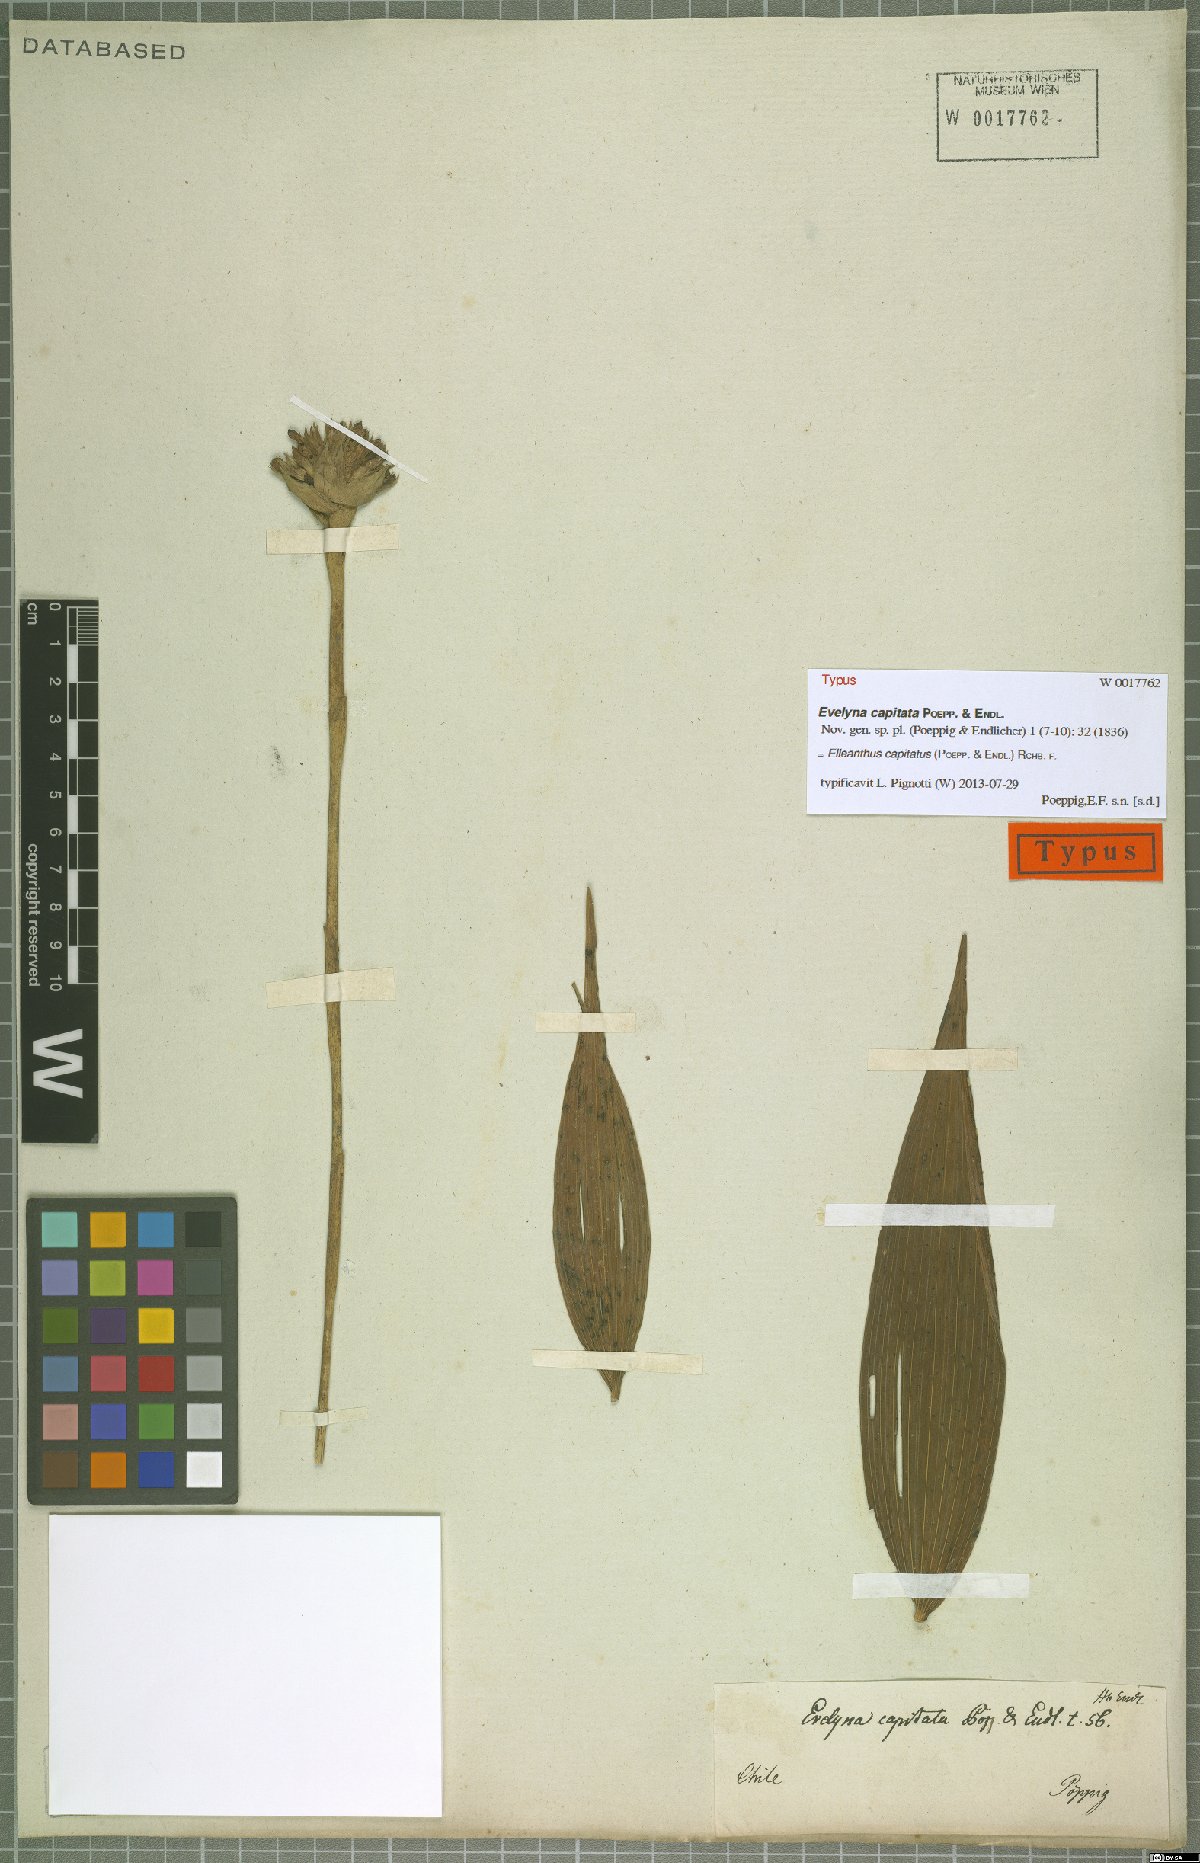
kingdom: Plantae
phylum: Tracheophyta
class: Liliopsida
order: Asparagales
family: Orchidaceae
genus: Elleanthus
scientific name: Elleanthus capitatus
